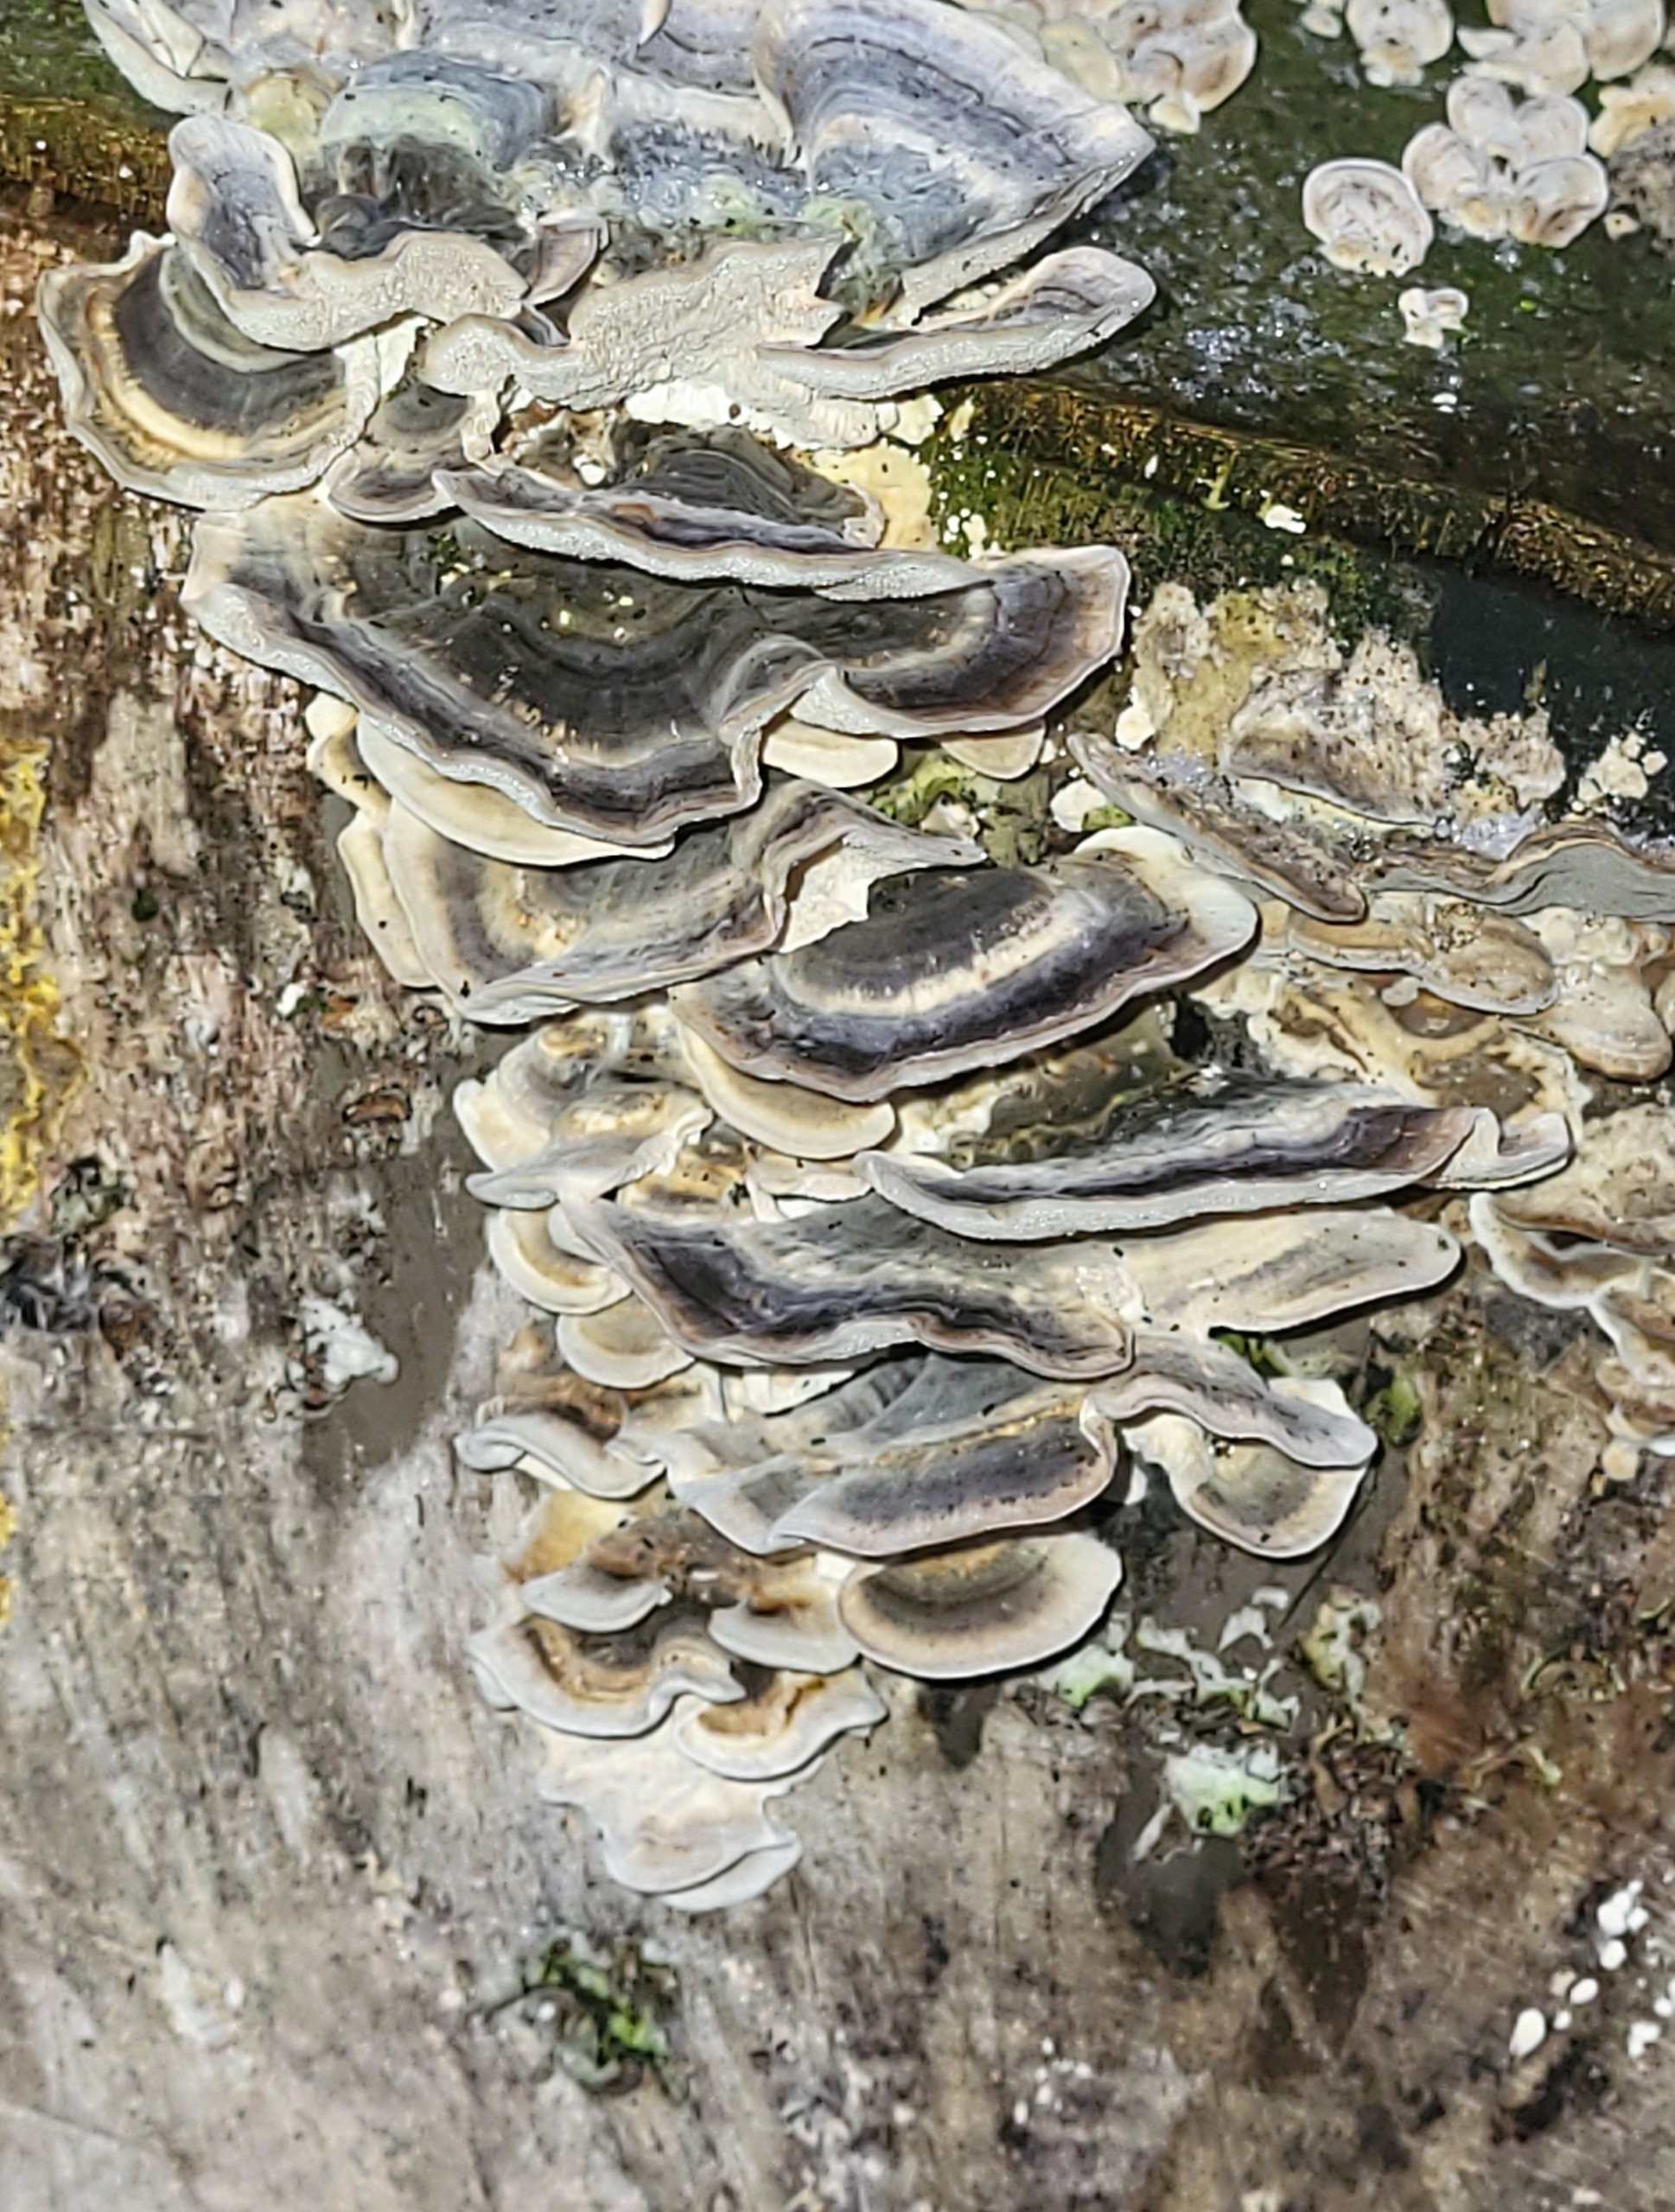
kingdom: Fungi
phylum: Basidiomycota
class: Agaricomycetes
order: Polyporales
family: Polyporaceae
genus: Trametes
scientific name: Trametes versicolor
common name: Broget læderporesvamp
